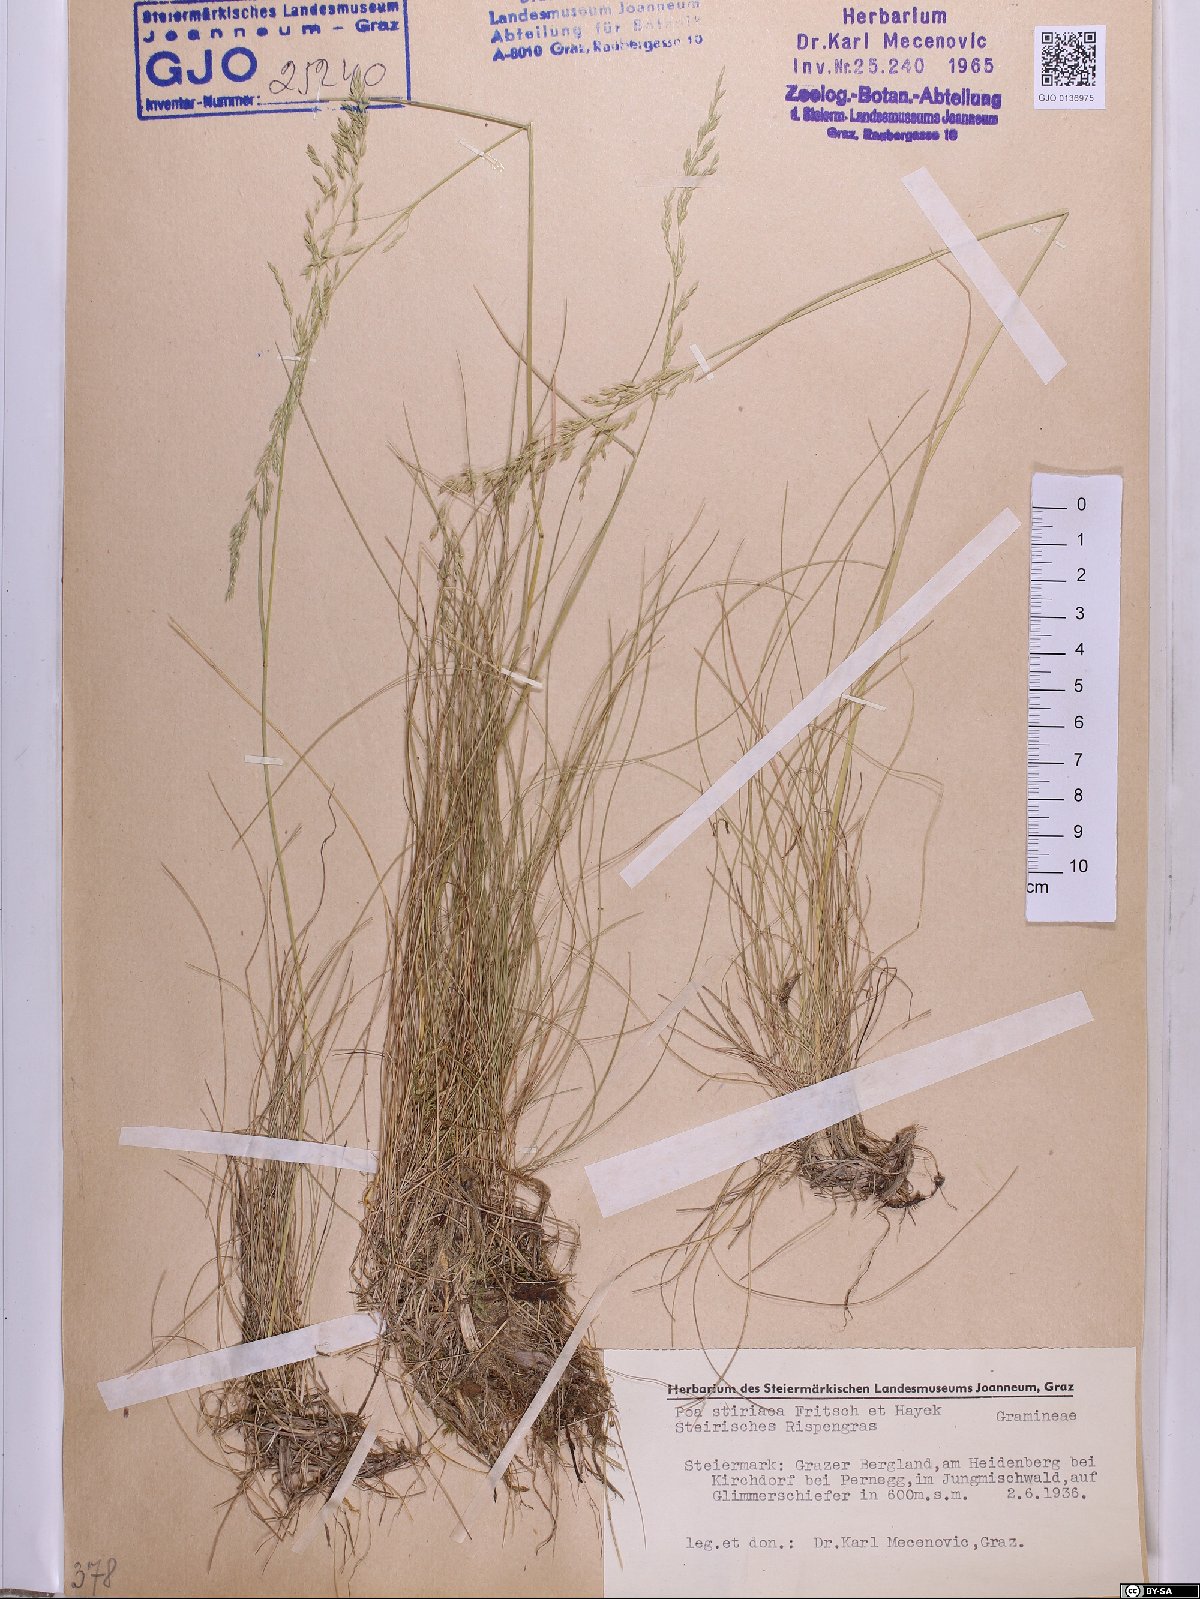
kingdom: Plantae
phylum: Tracheophyta
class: Liliopsida
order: Poales
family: Poaceae
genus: Poa
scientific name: Poa stiriaca
